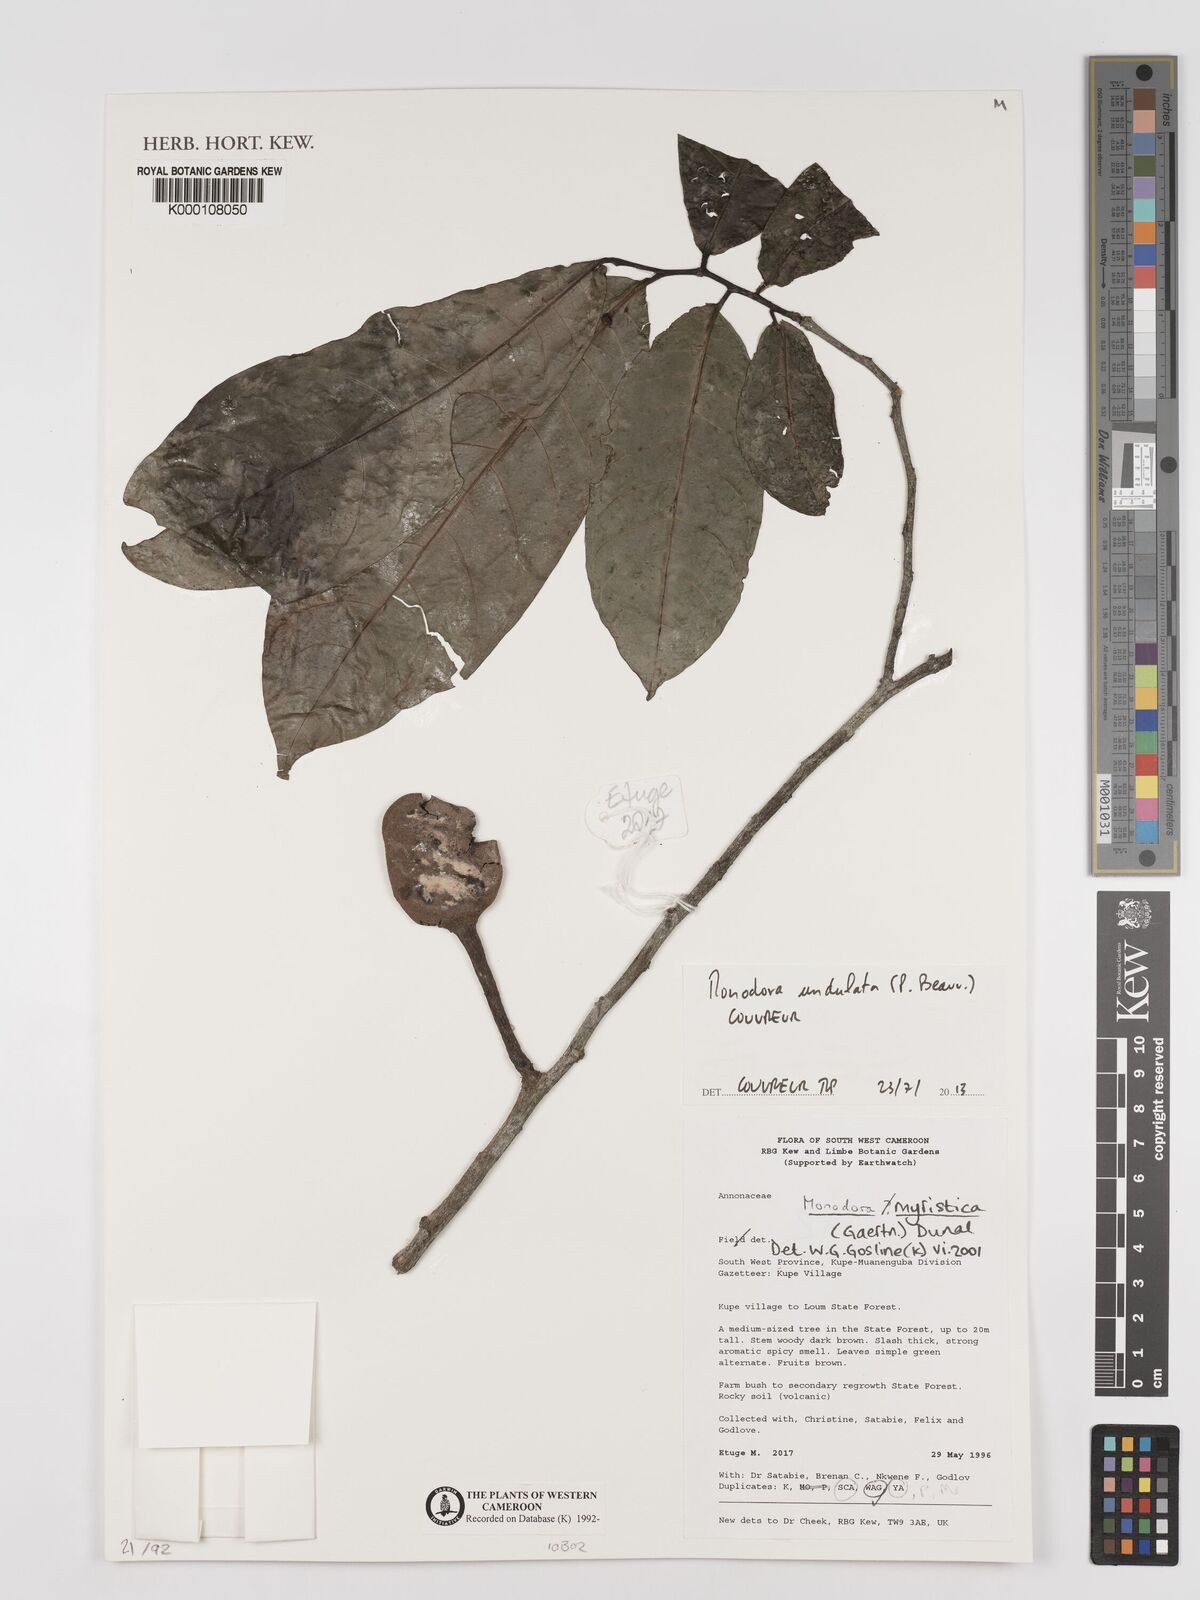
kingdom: Plantae
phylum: Tracheophyta
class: Magnoliopsida
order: Magnoliales
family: Annonaceae
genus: Monodora
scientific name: Monodora myristica
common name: African nutmeg
